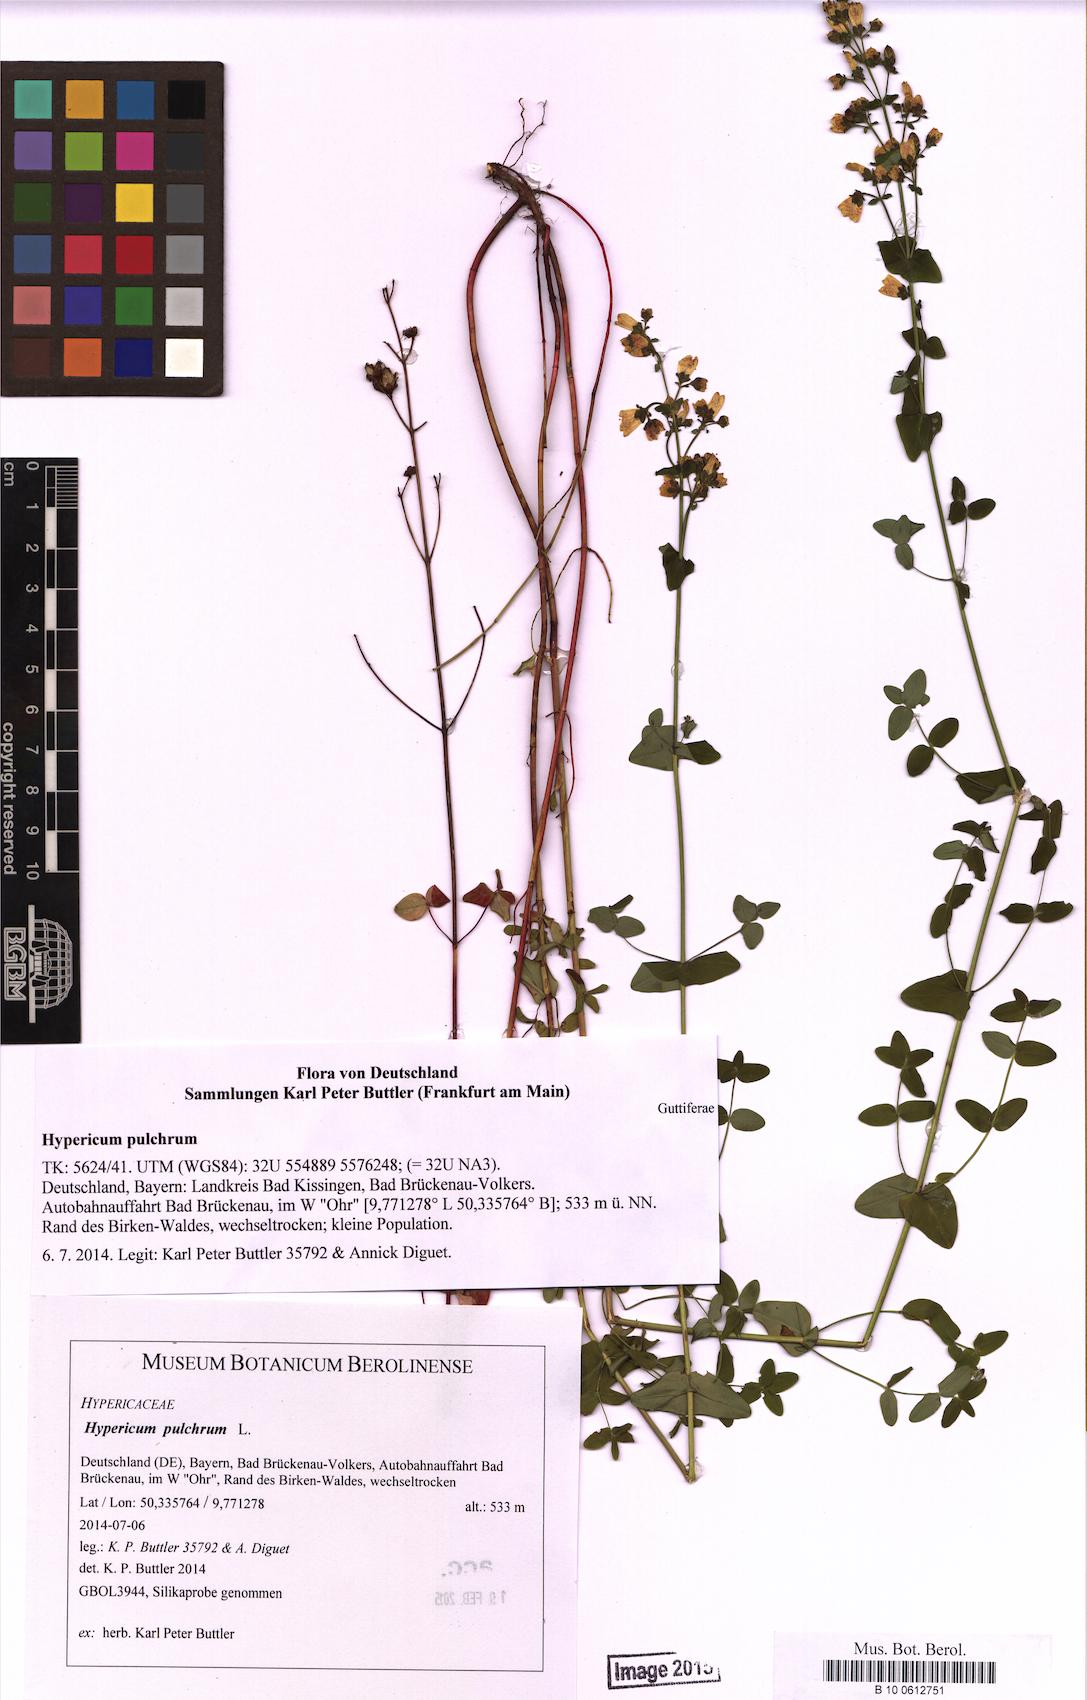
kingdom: Plantae
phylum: Tracheophyta
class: Magnoliopsida
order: Malpighiales
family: Hypericaceae
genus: Hypericum
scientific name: Hypericum pulchrum
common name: Slender st. john's-wort
